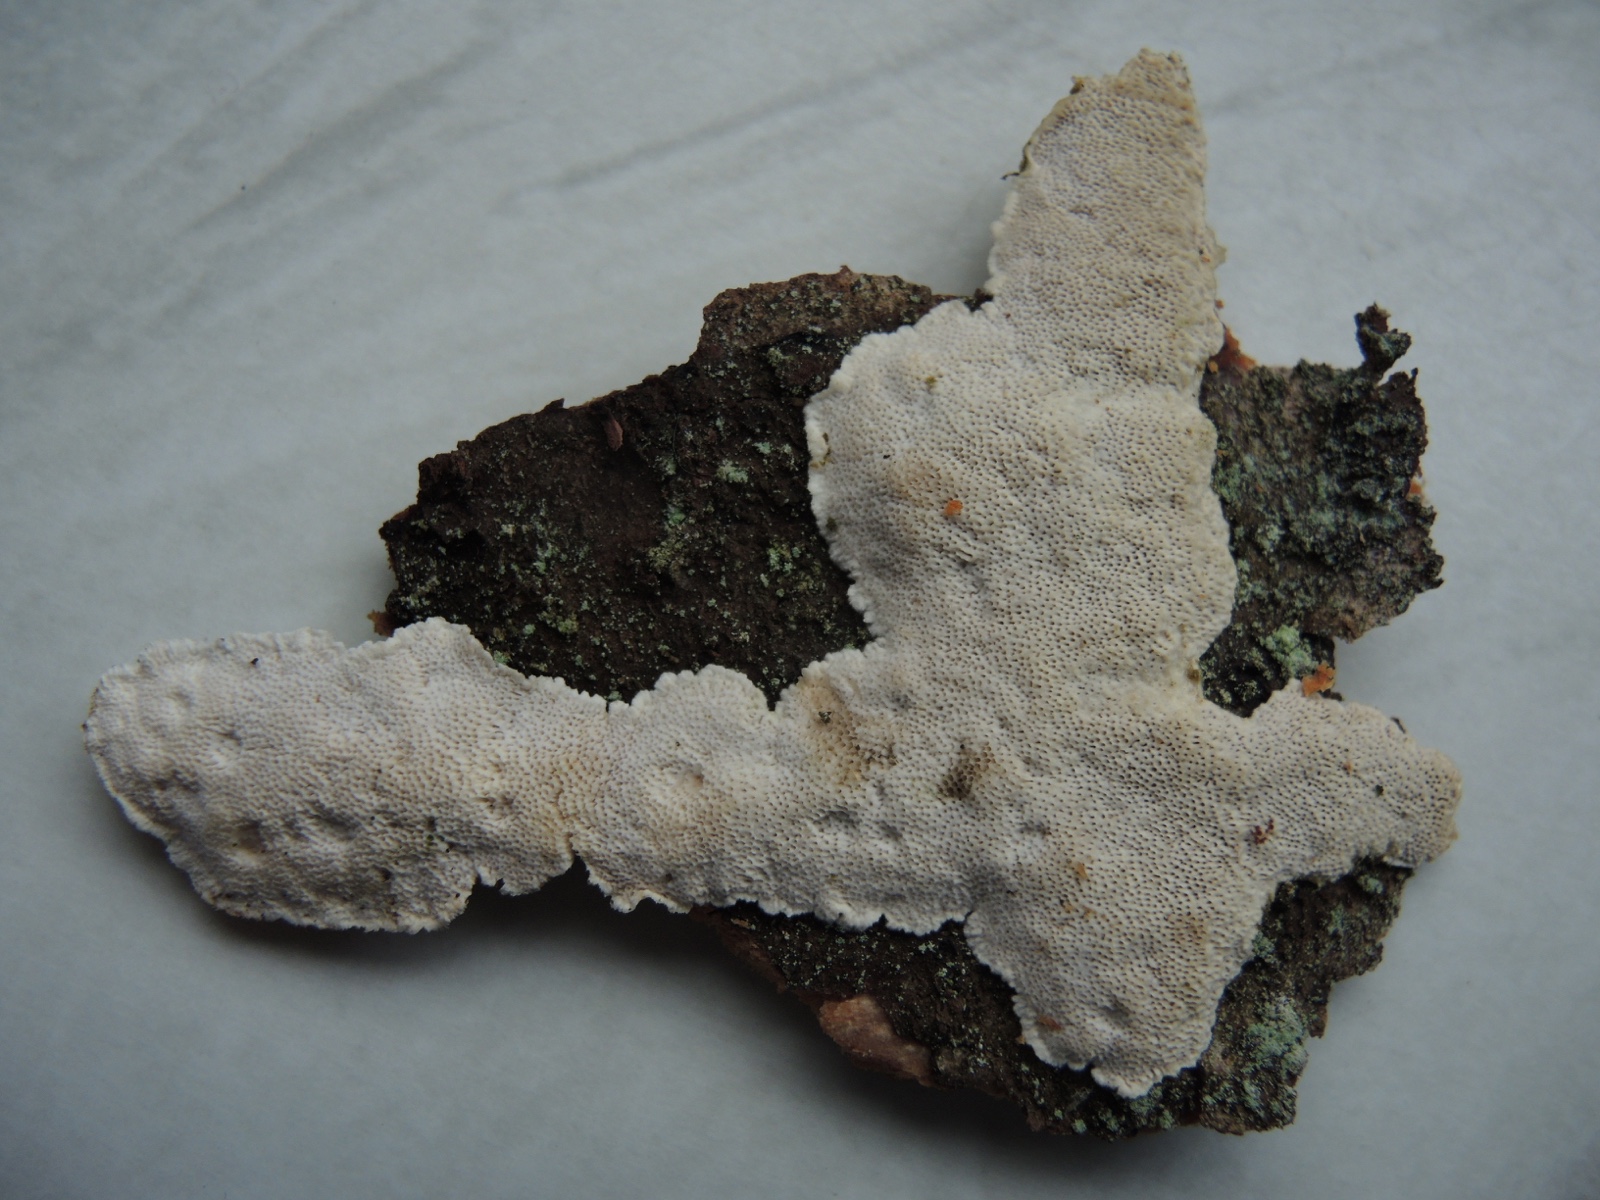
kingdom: Fungi
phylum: Basidiomycota
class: Agaricomycetes
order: Polyporales
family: Gelatoporiaceae
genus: Cinereomyces
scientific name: Cinereomyces lindbladii
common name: almindelig gråporesvamp
